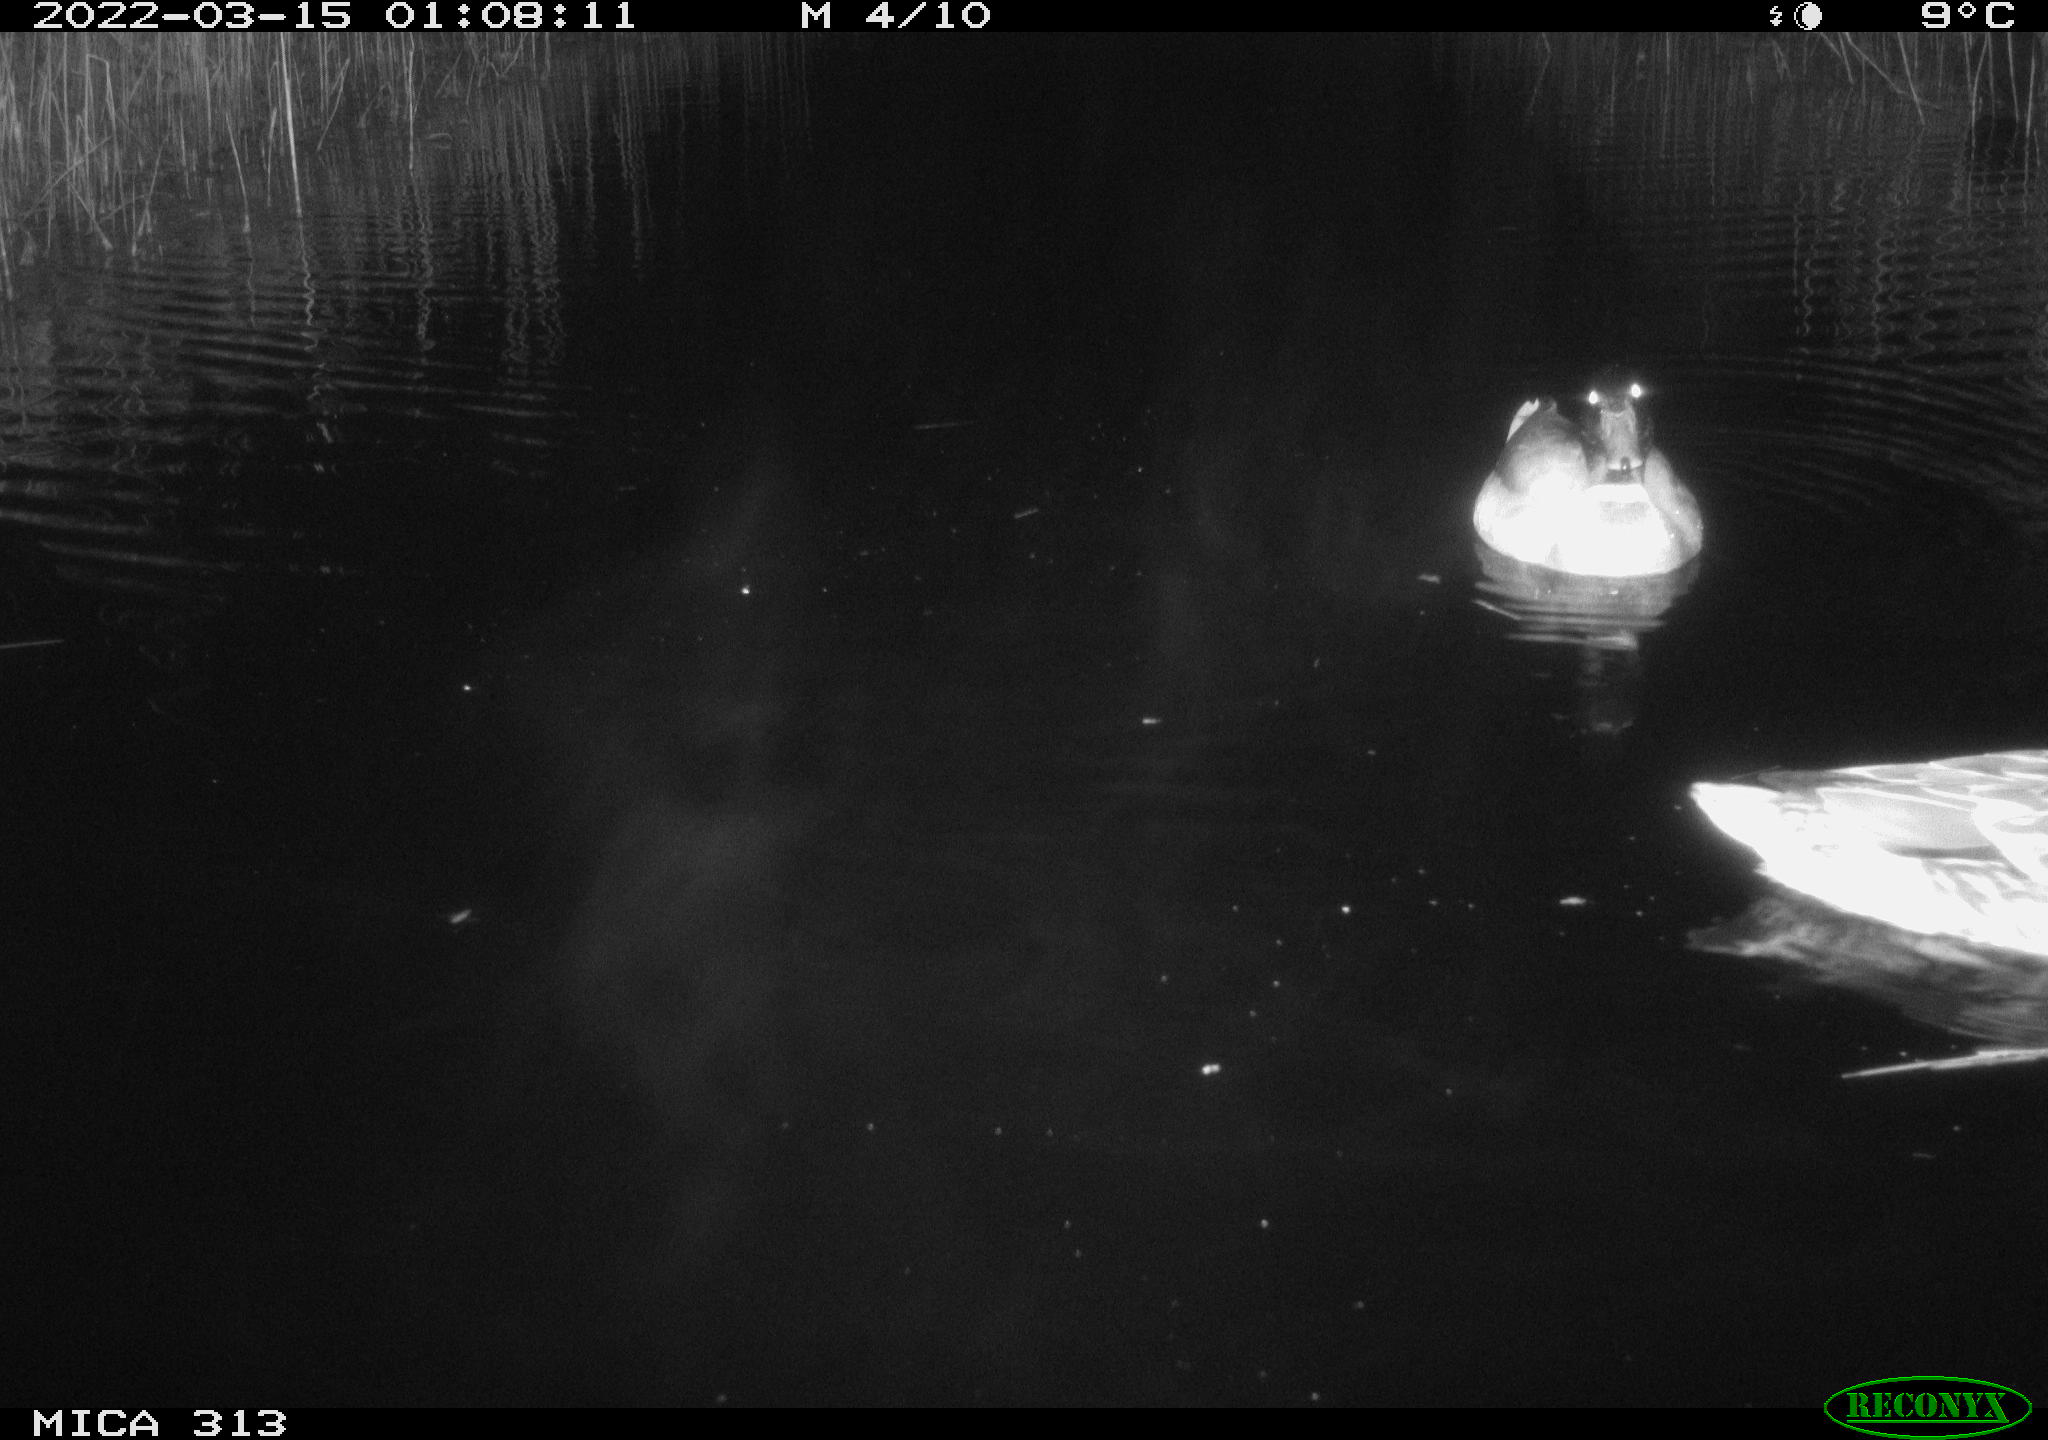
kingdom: Animalia
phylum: Chordata
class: Aves
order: Anseriformes
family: Anatidae
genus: Mareca
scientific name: Mareca strepera
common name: Gadwall
